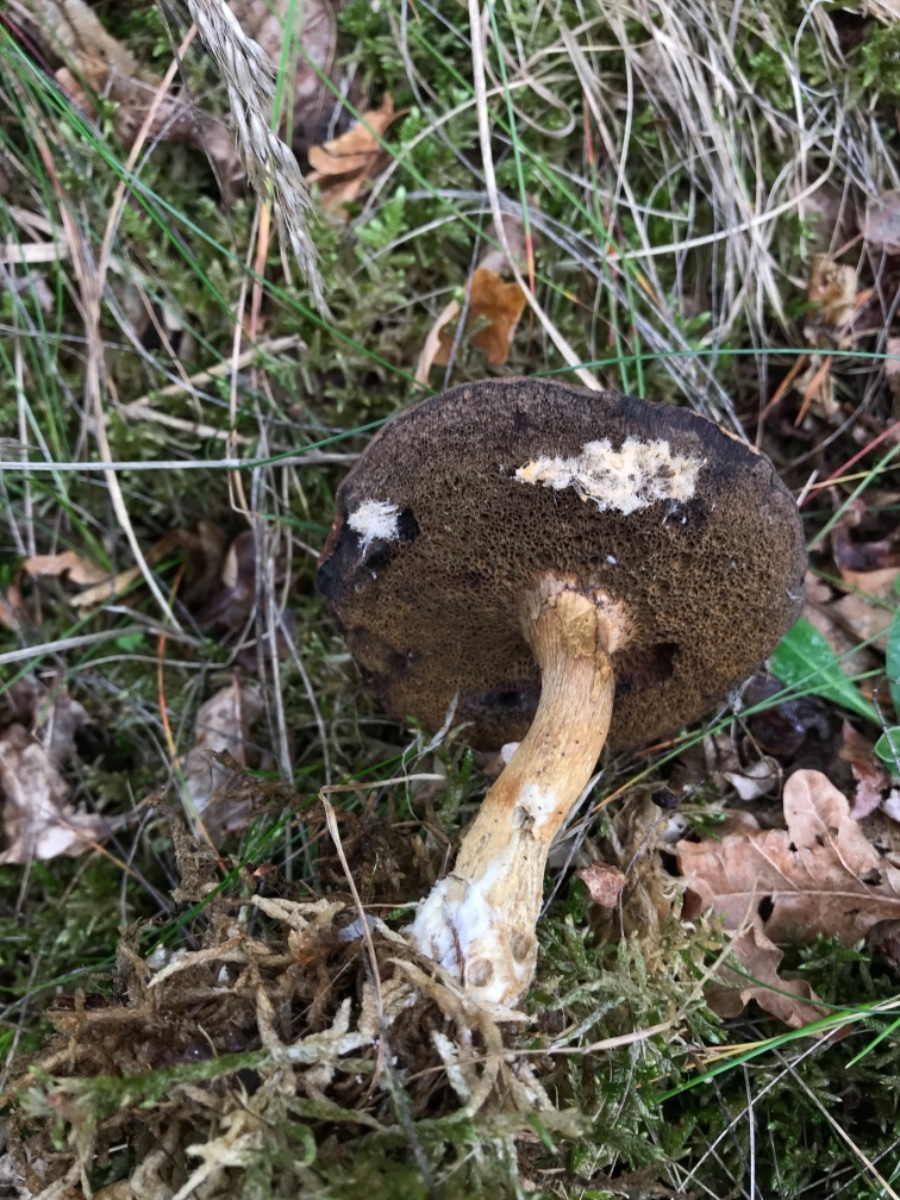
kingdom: Fungi
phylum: Mucoromycota
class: Mucoromycetes
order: Mucorales
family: Rhizopodaceae
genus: Syzygites
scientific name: Syzygites megalocarpus
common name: nissenål
